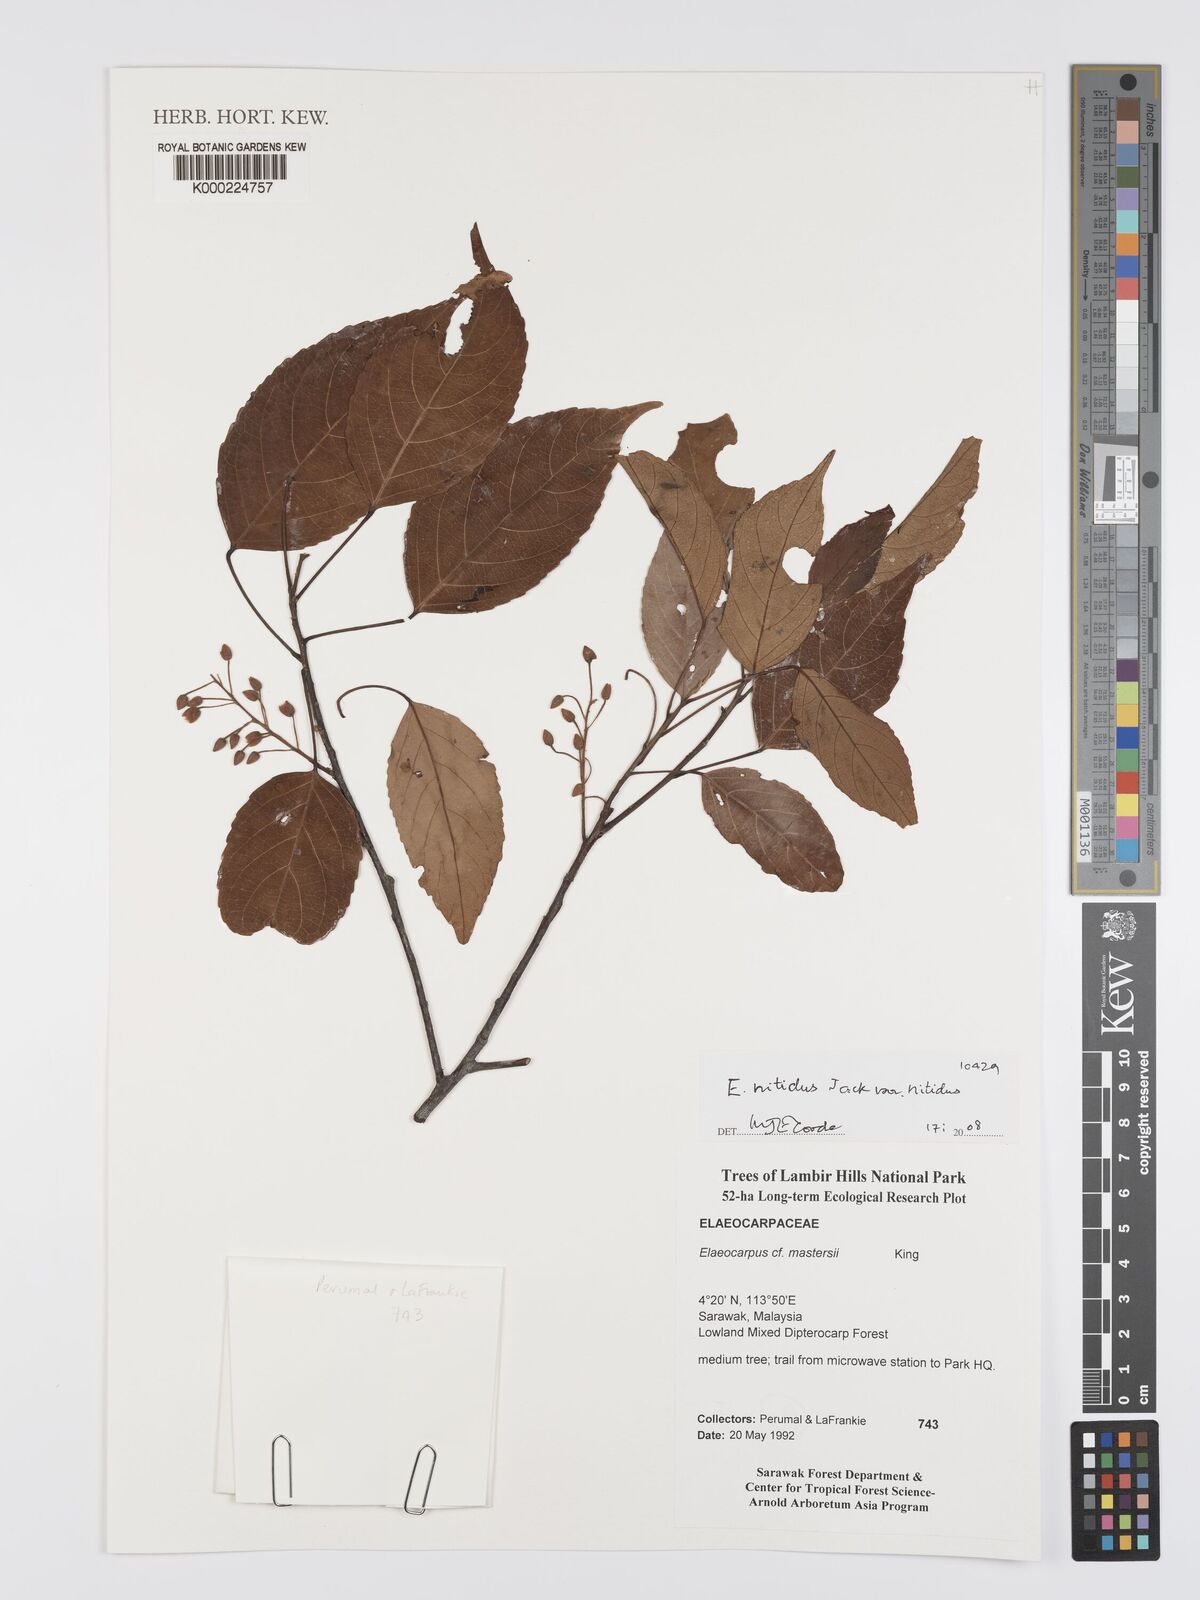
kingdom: Plantae
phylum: Tracheophyta
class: Magnoliopsida
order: Oxalidales
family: Elaeocarpaceae
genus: Elaeocarpus
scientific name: Elaeocarpus nitidus
